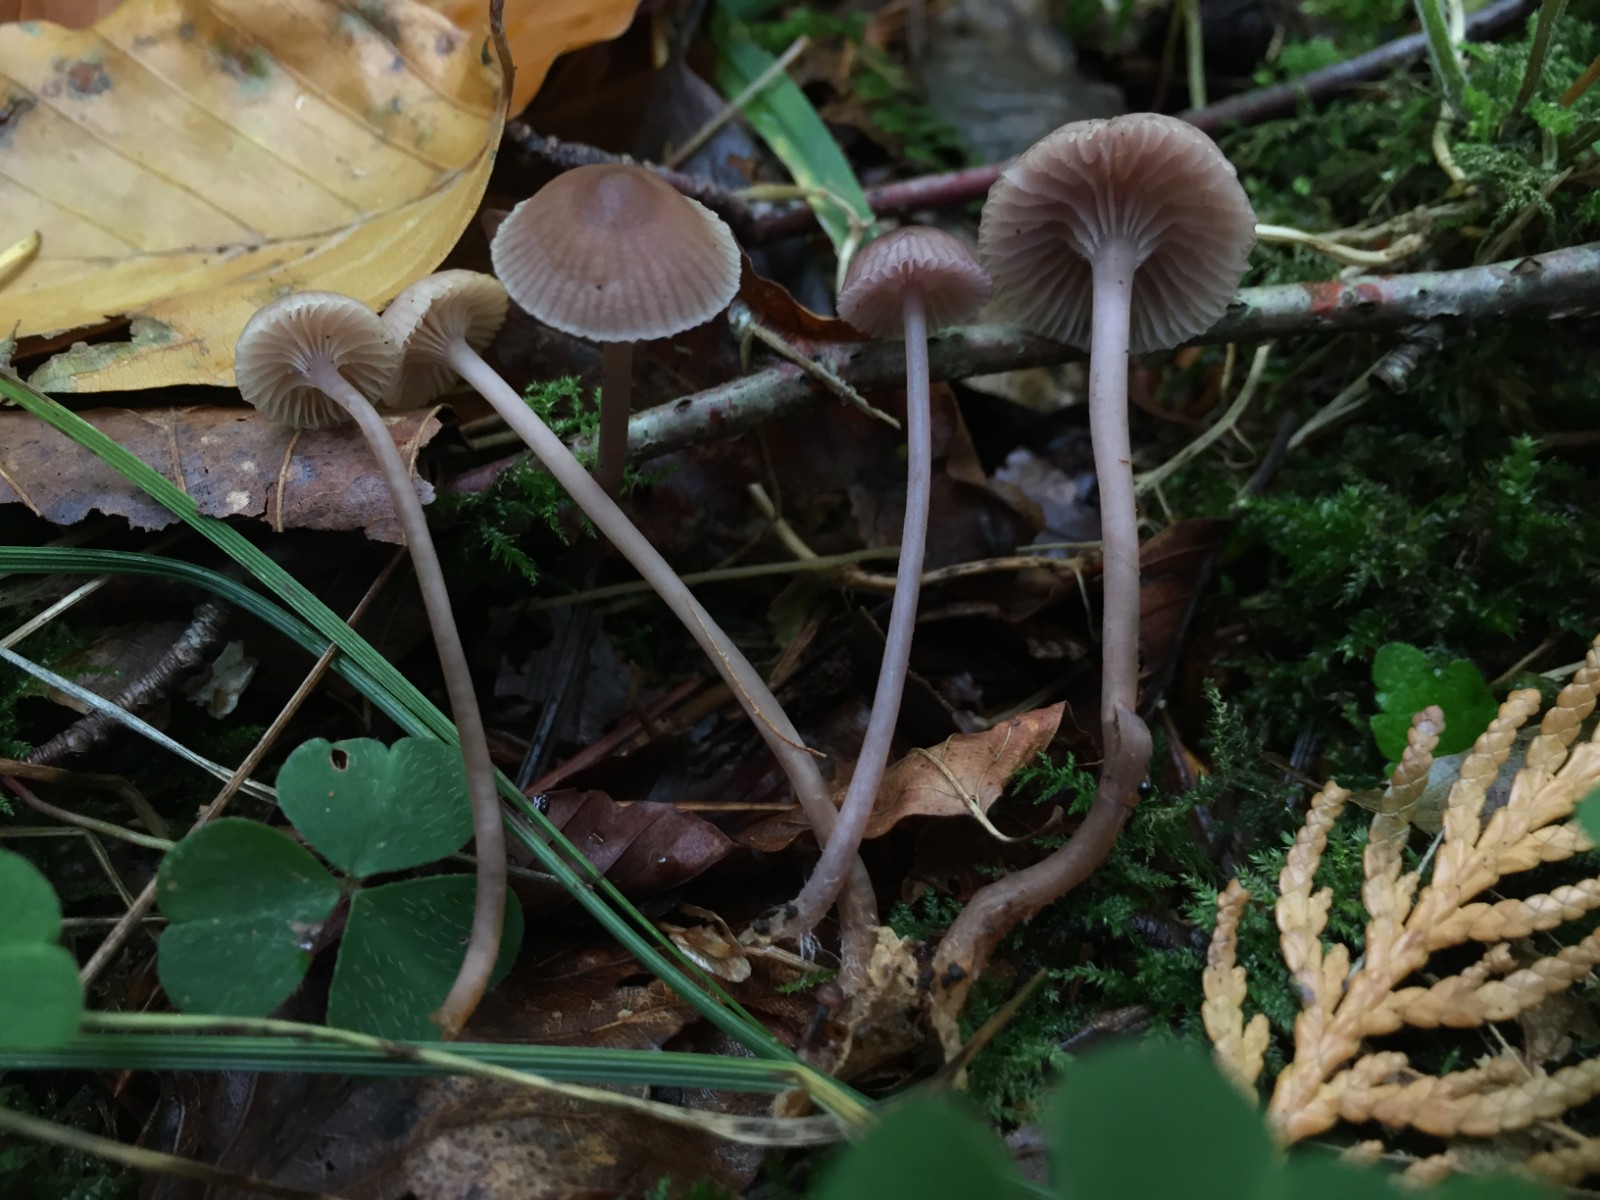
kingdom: Fungi
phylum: Basidiomycota
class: Agaricomycetes
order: Agaricales
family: Mycenaceae
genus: Mycena
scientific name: Mycena pearsoniana
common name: lillabrun huesvamp
